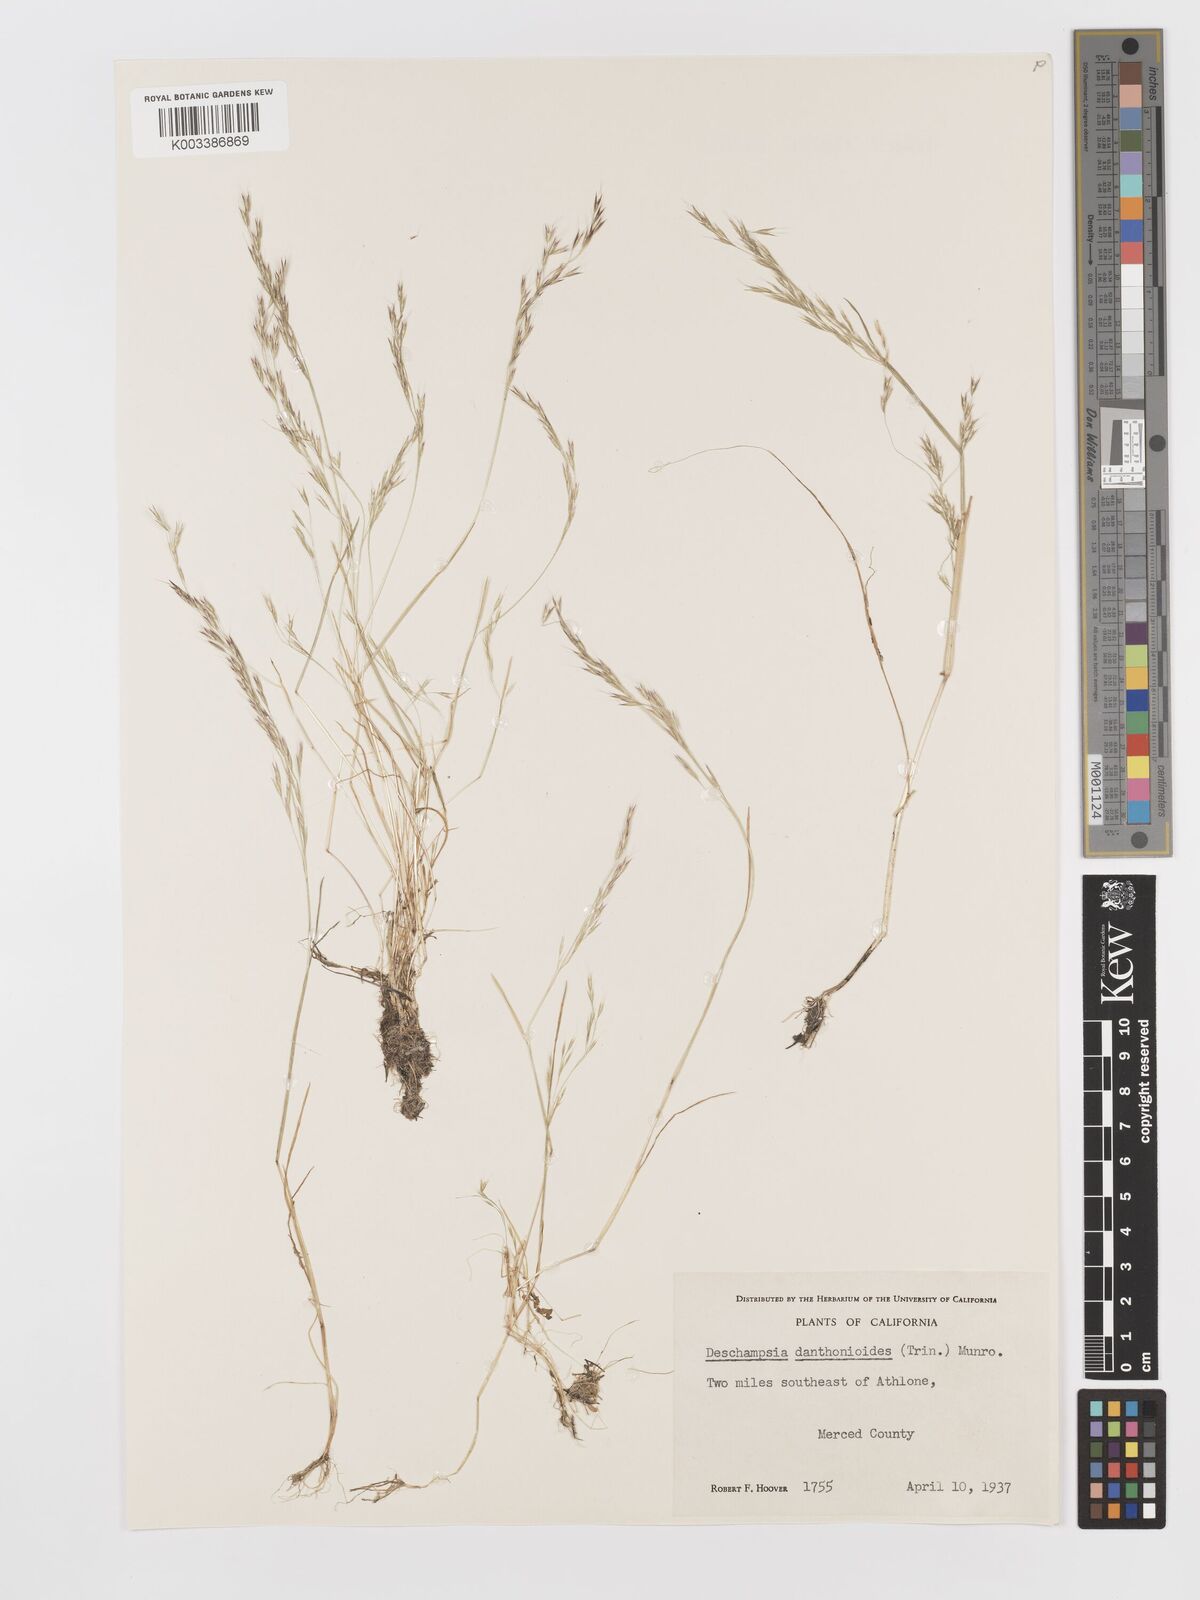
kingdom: Plantae
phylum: Tracheophyta
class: Liliopsida
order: Poales
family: Poaceae
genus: Deschampsia
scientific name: Deschampsia danthonioides
